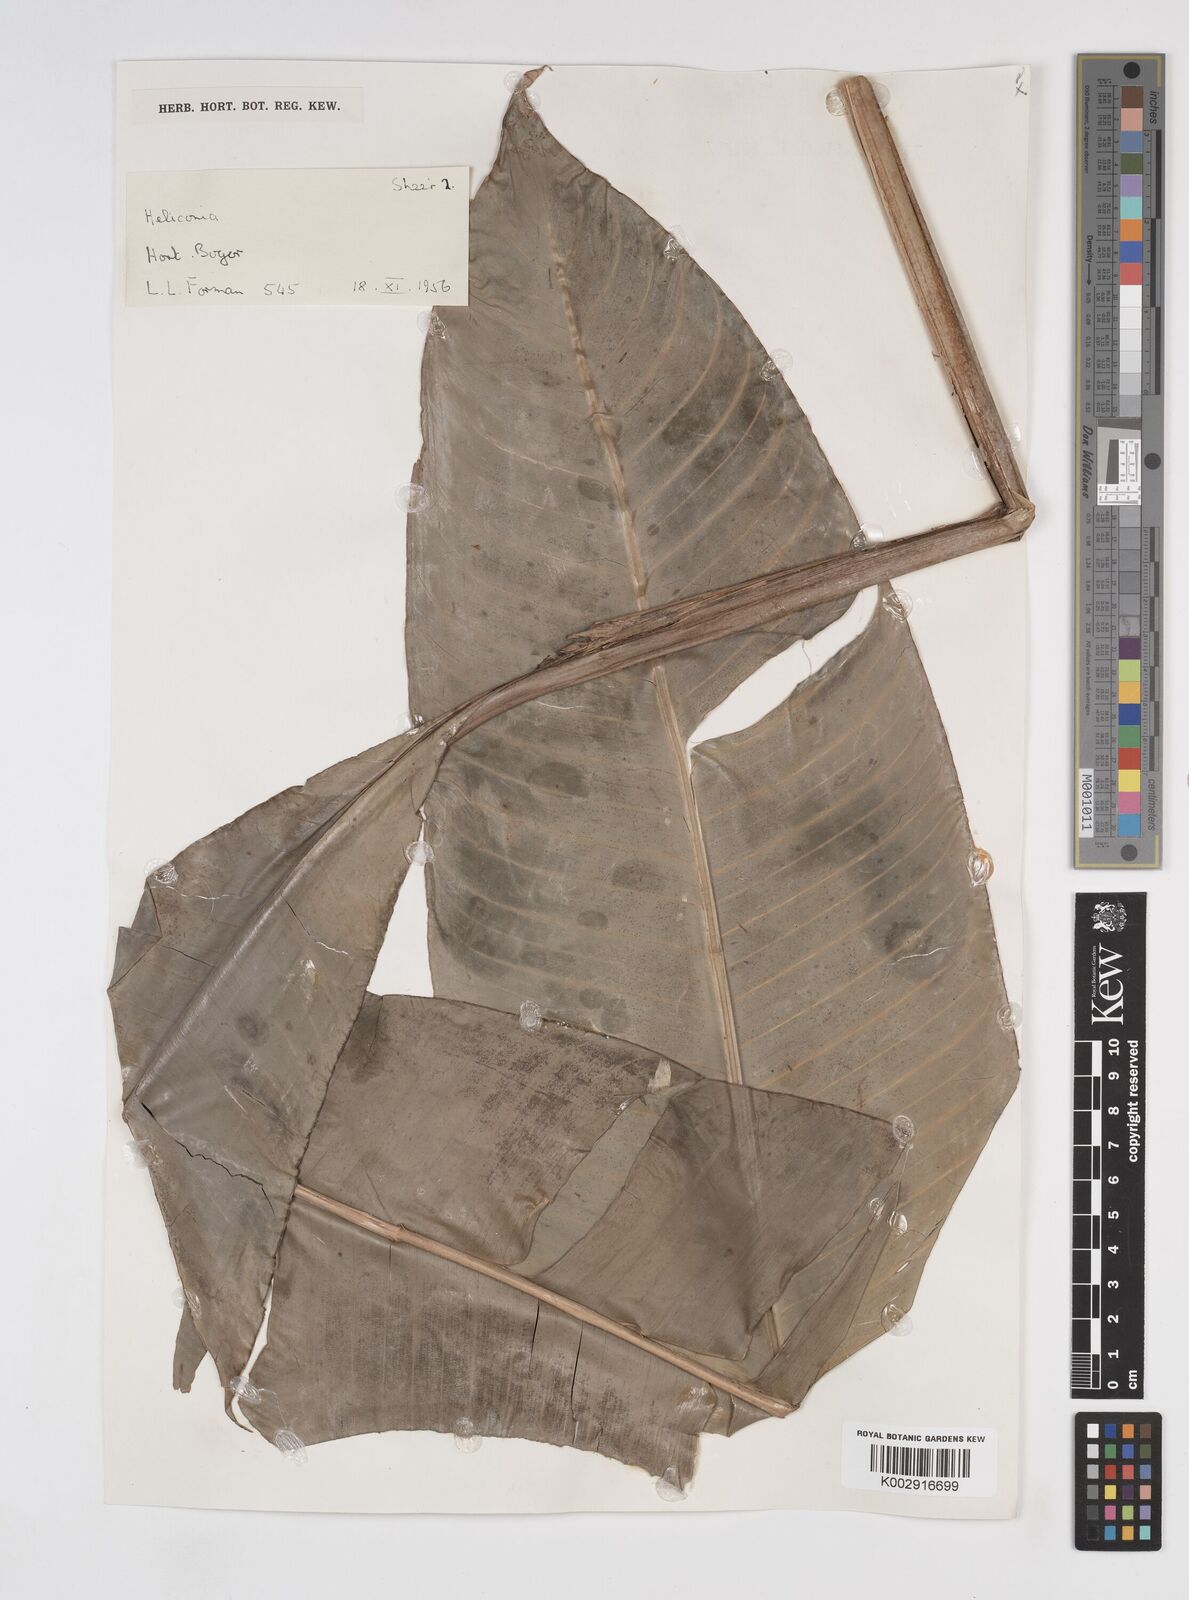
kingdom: Plantae
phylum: Tracheophyta
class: Liliopsida
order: Zingiberales
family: Heliconiaceae
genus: Heliconia
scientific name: Heliconia metallica
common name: Shining bird of paradise
